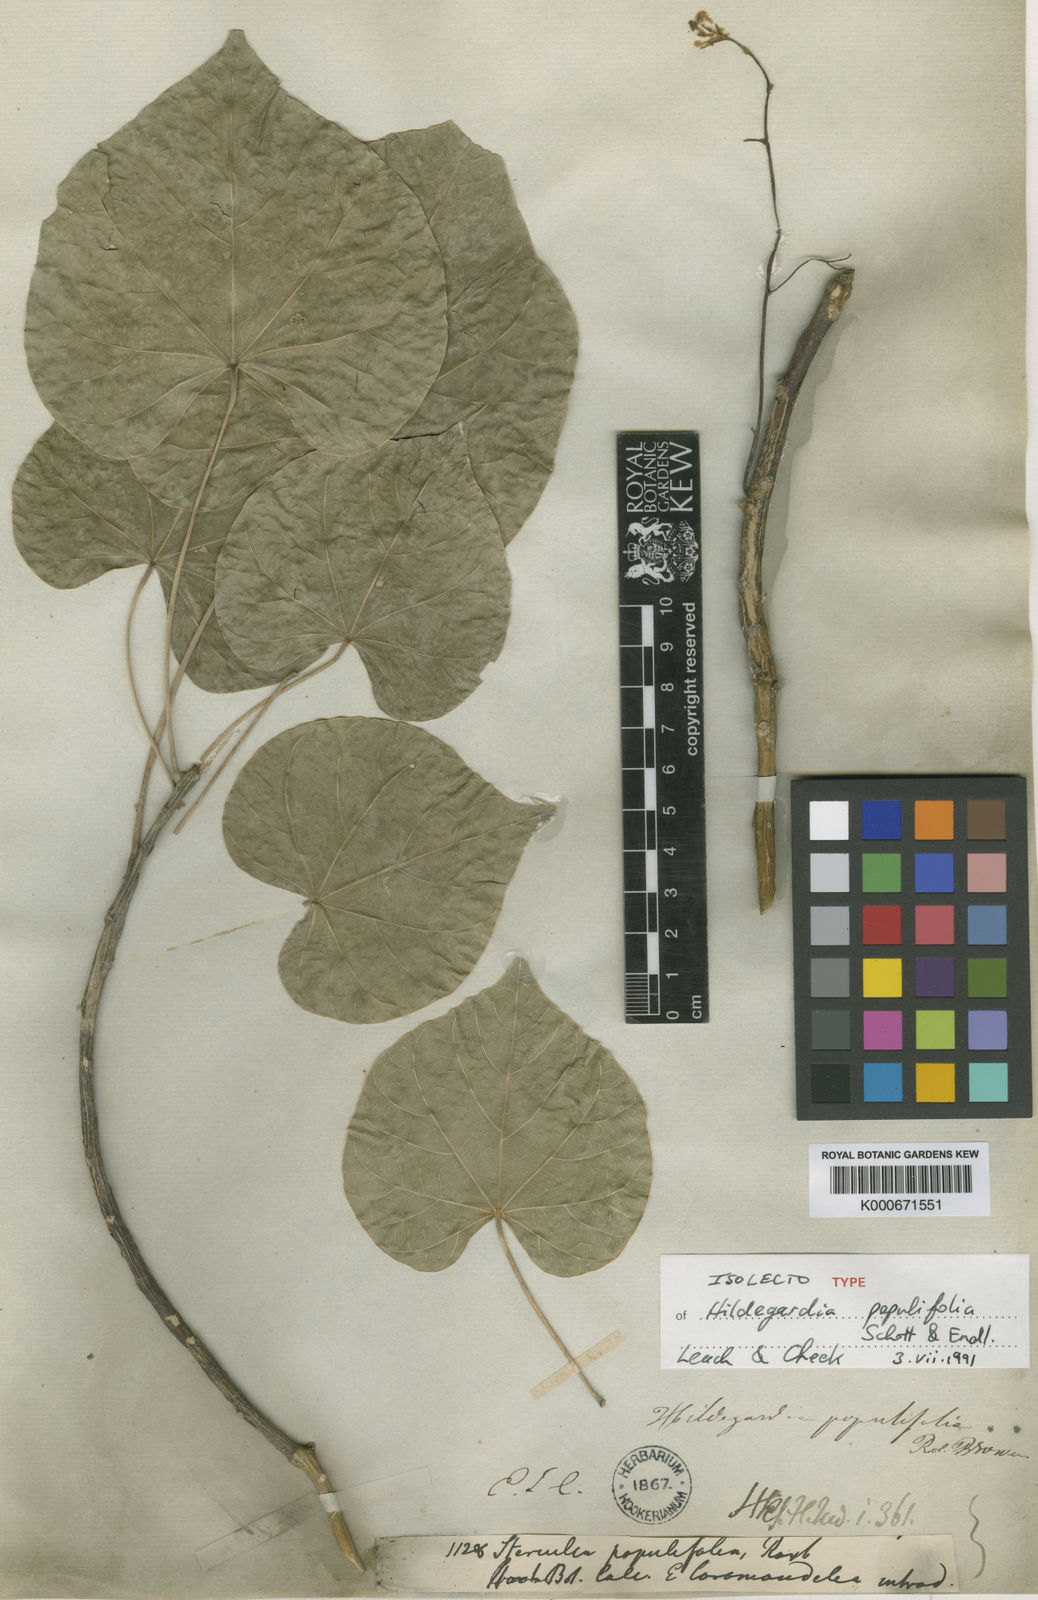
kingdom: Plantae
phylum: Tracheophyta
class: Magnoliopsida
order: Malvales
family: Malvaceae
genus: Hildegardia
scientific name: Hildegardia populifolia
